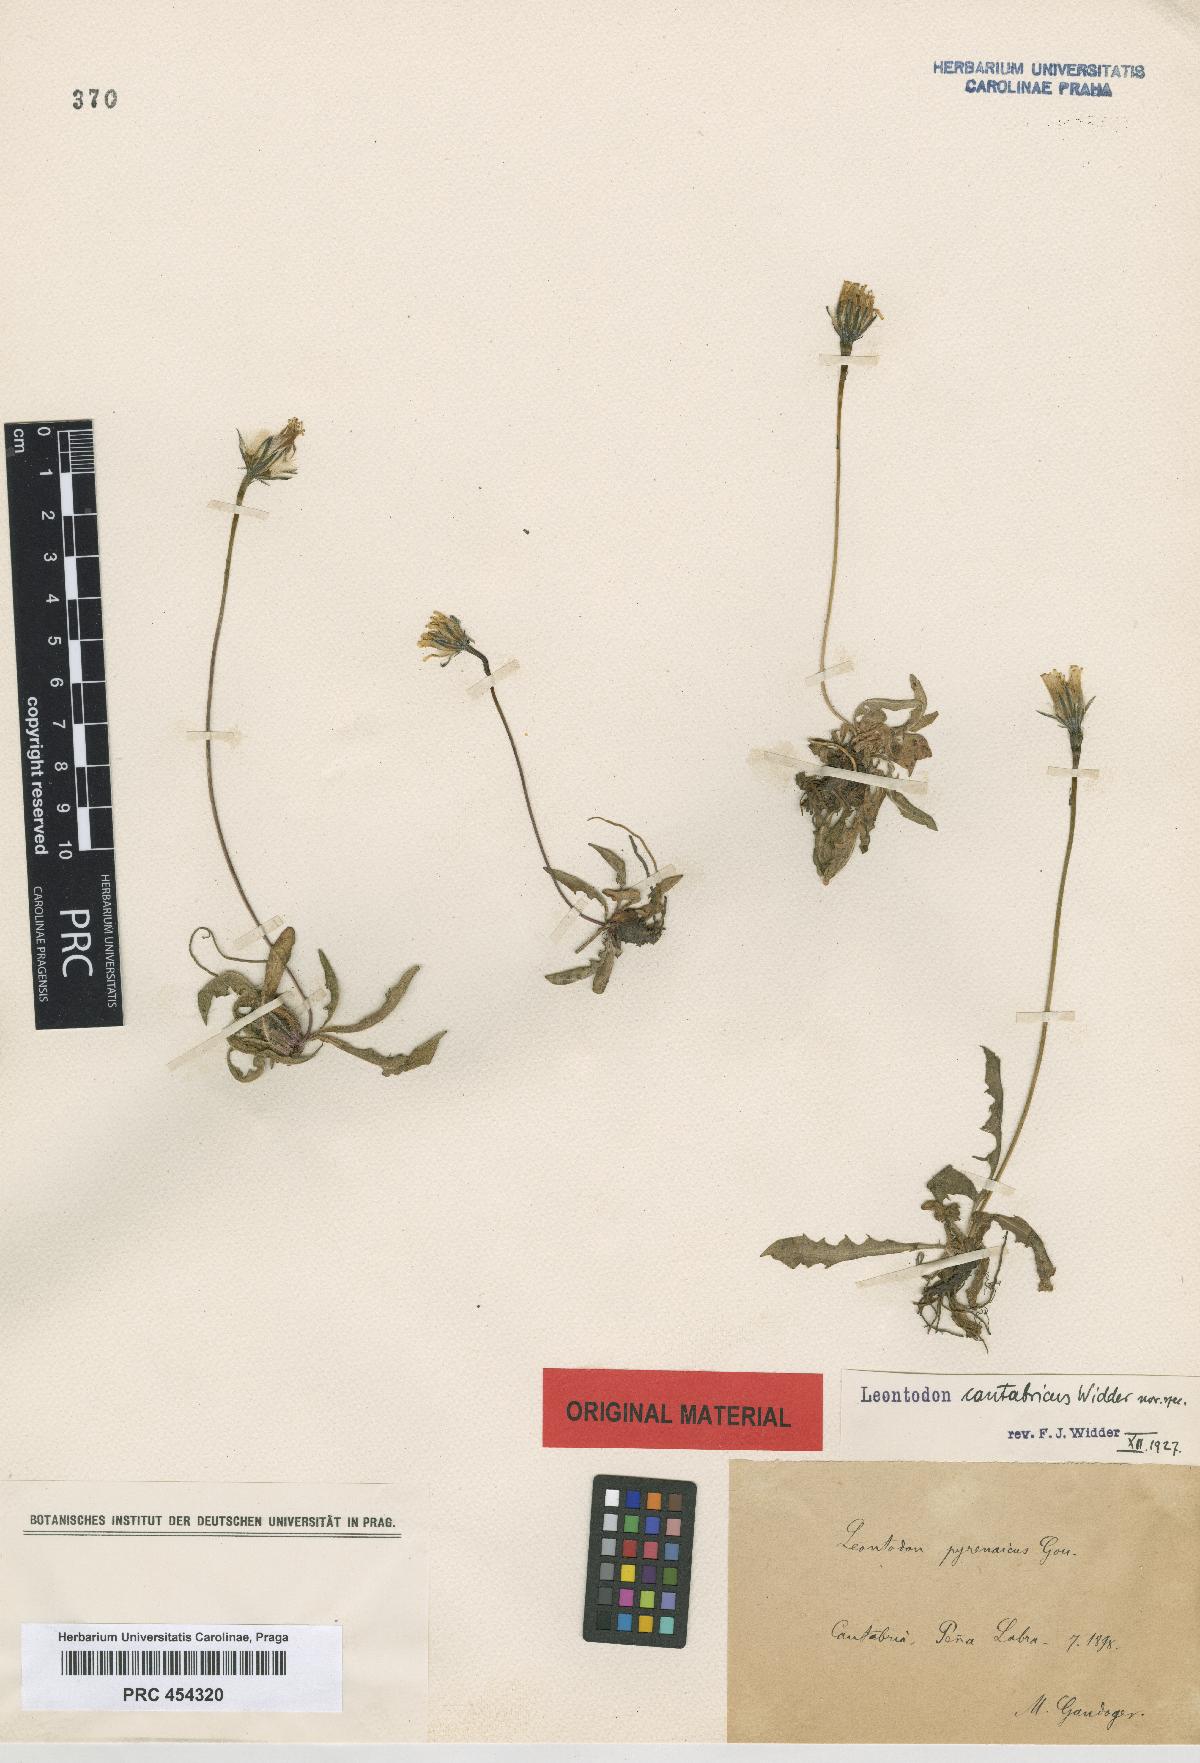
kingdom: Plantae
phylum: Tracheophyta
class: Magnoliopsida
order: Asterales
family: Asteraceae
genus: Scorzoneroides
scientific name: Scorzoneroides pyrenaica
